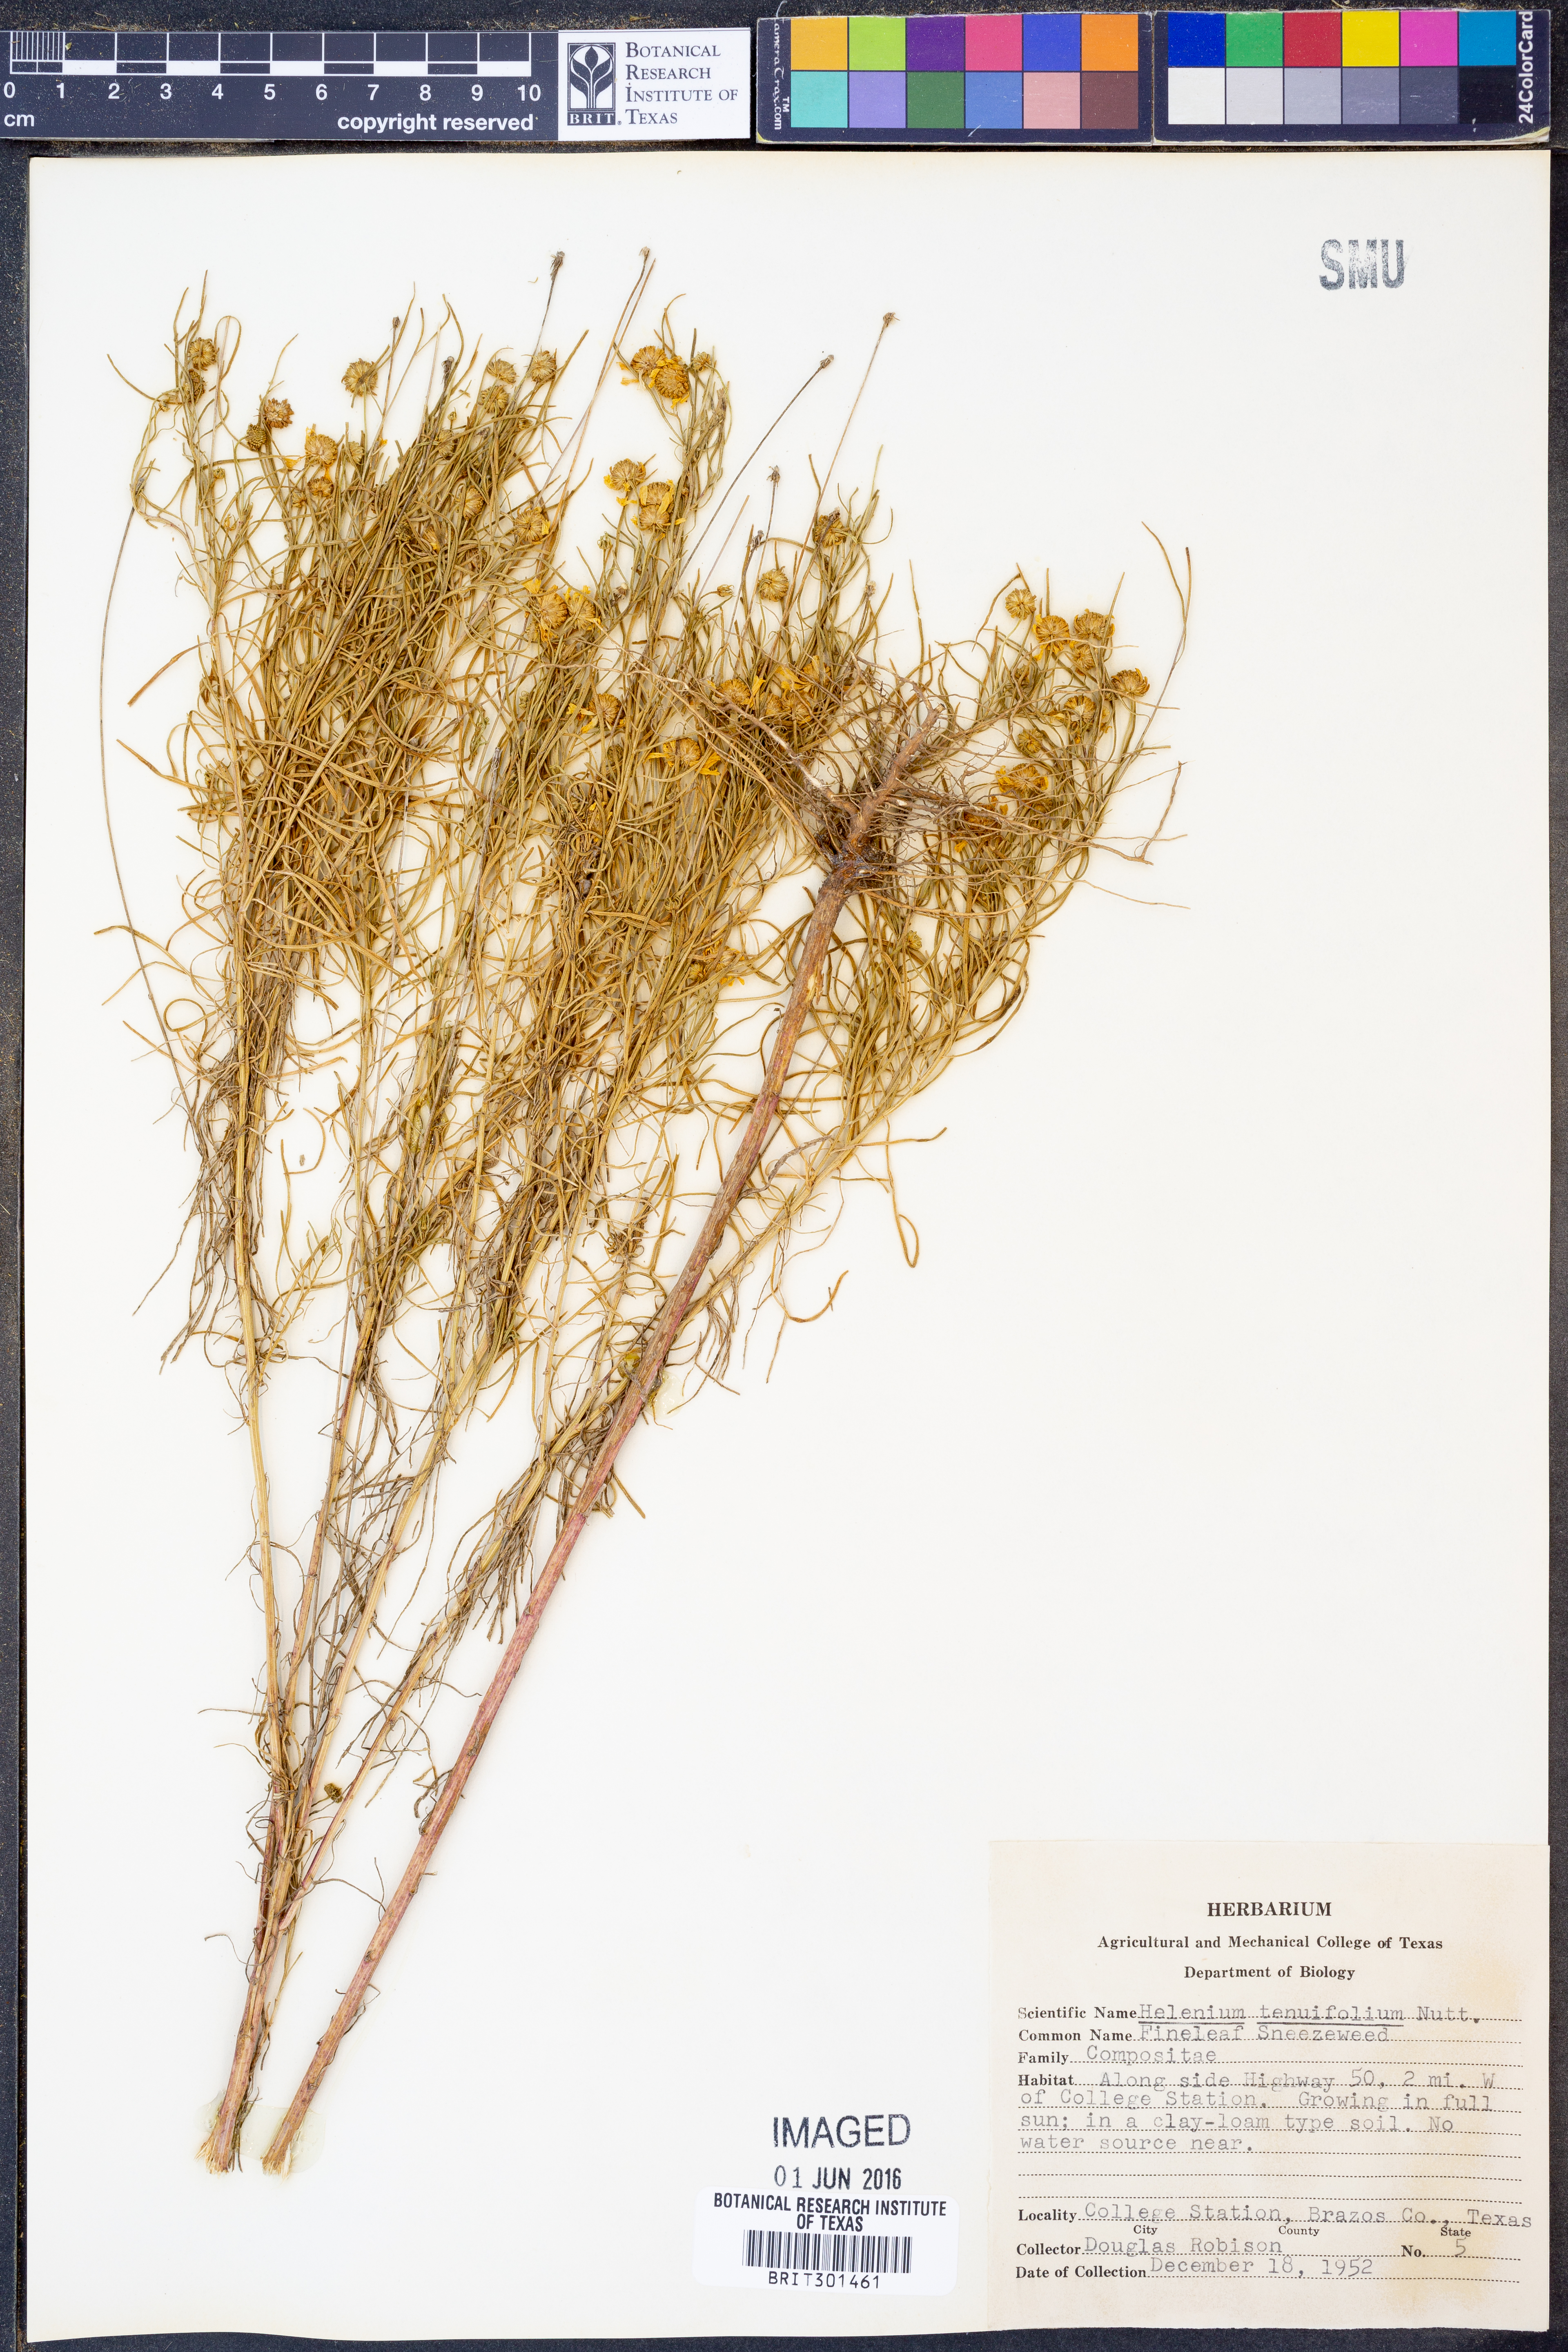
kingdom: Plantae
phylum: Tracheophyta
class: Magnoliopsida
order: Asterales
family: Asteraceae
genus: Helenium
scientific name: Helenium amarum
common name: Bitter sneezeweed
